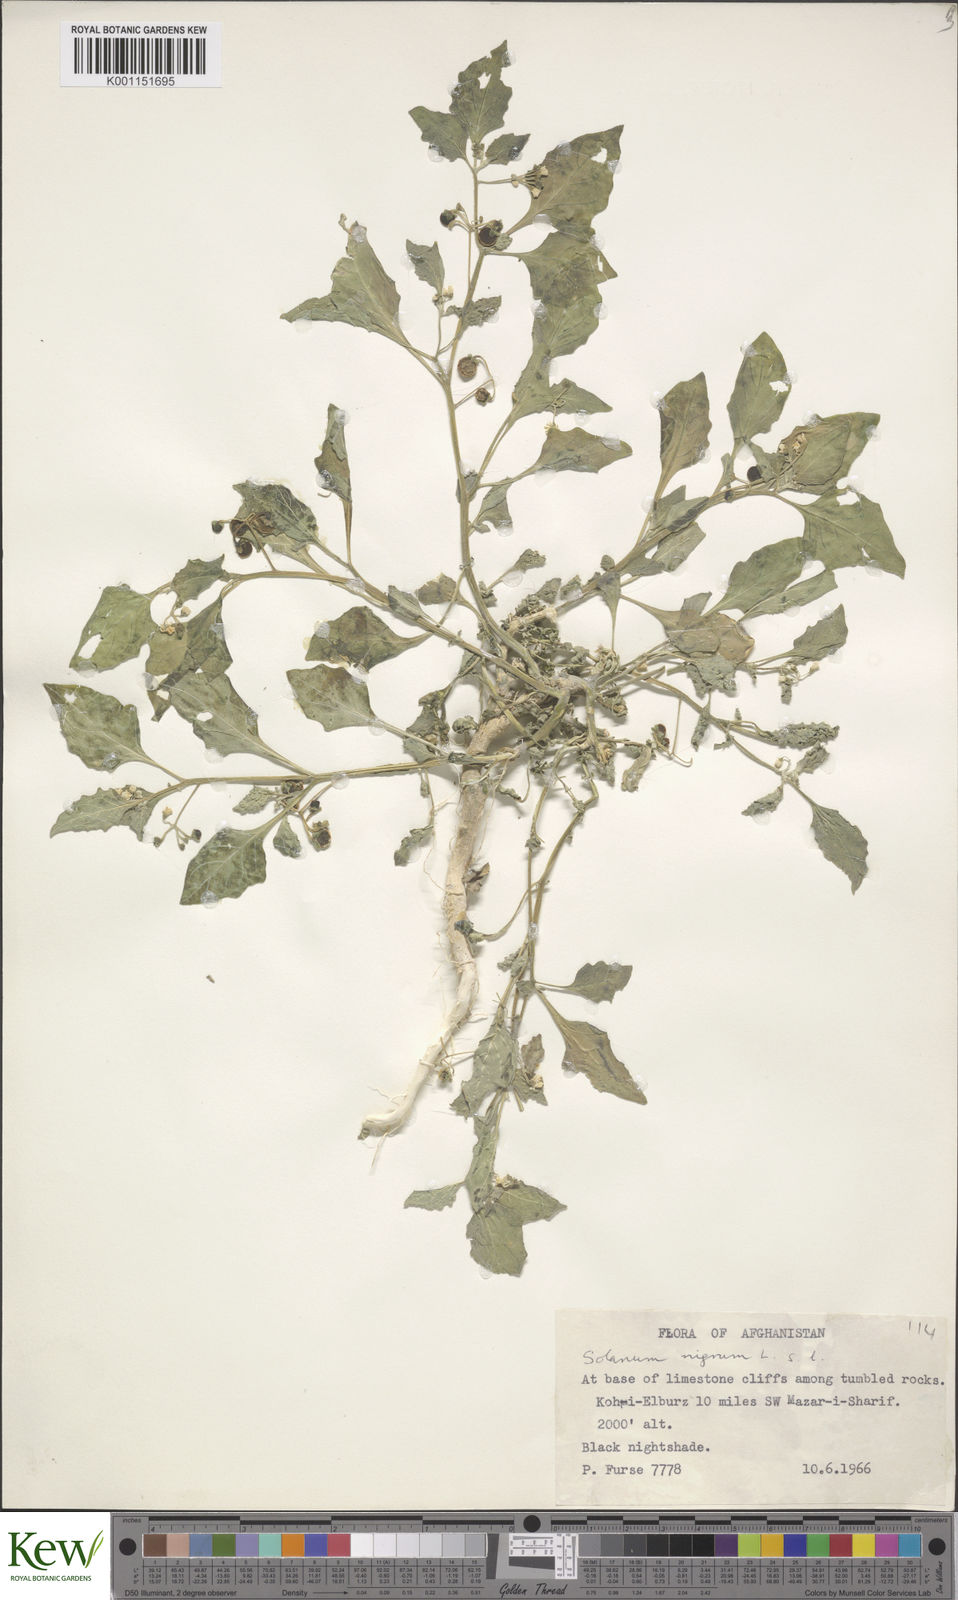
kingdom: Plantae
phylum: Tracheophyta
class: Magnoliopsida
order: Solanales
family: Solanaceae
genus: Solanum
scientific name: Solanum americanum
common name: American black nightshade
